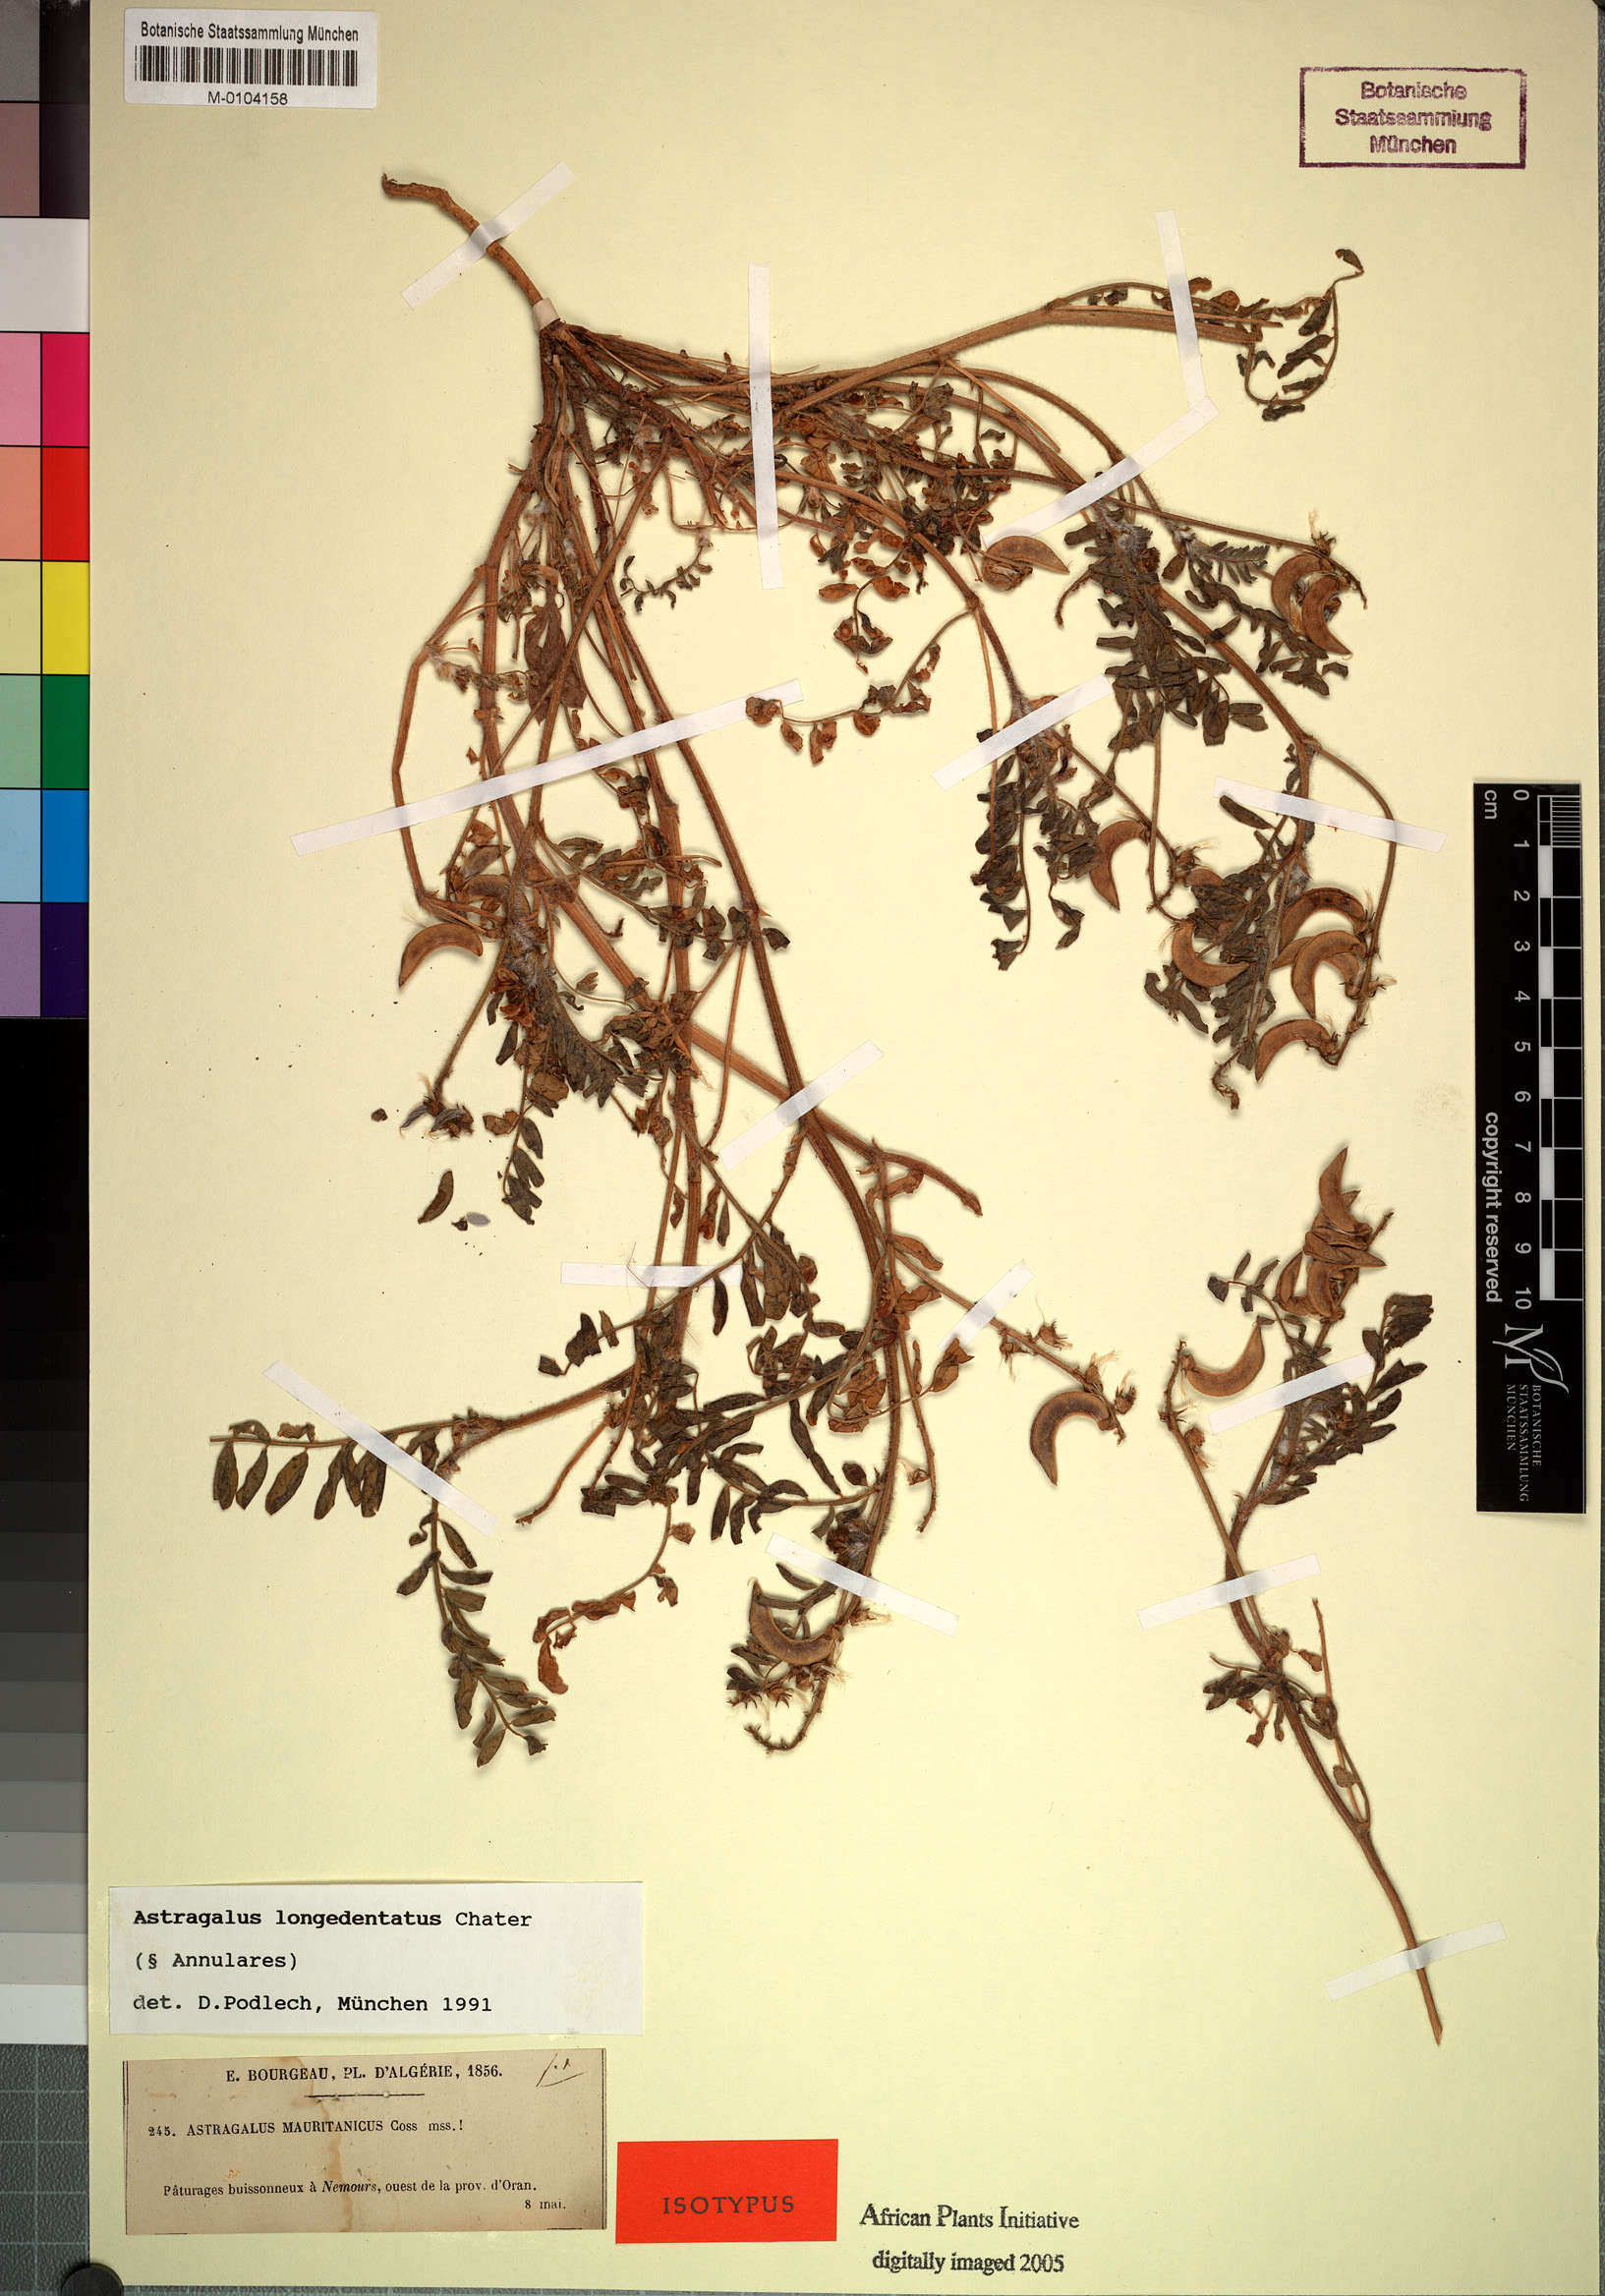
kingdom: Plantae
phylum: Tracheophyta
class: Magnoliopsida
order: Fabales
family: Fabaceae
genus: Astragalus
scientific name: Astragalus longidentatus
